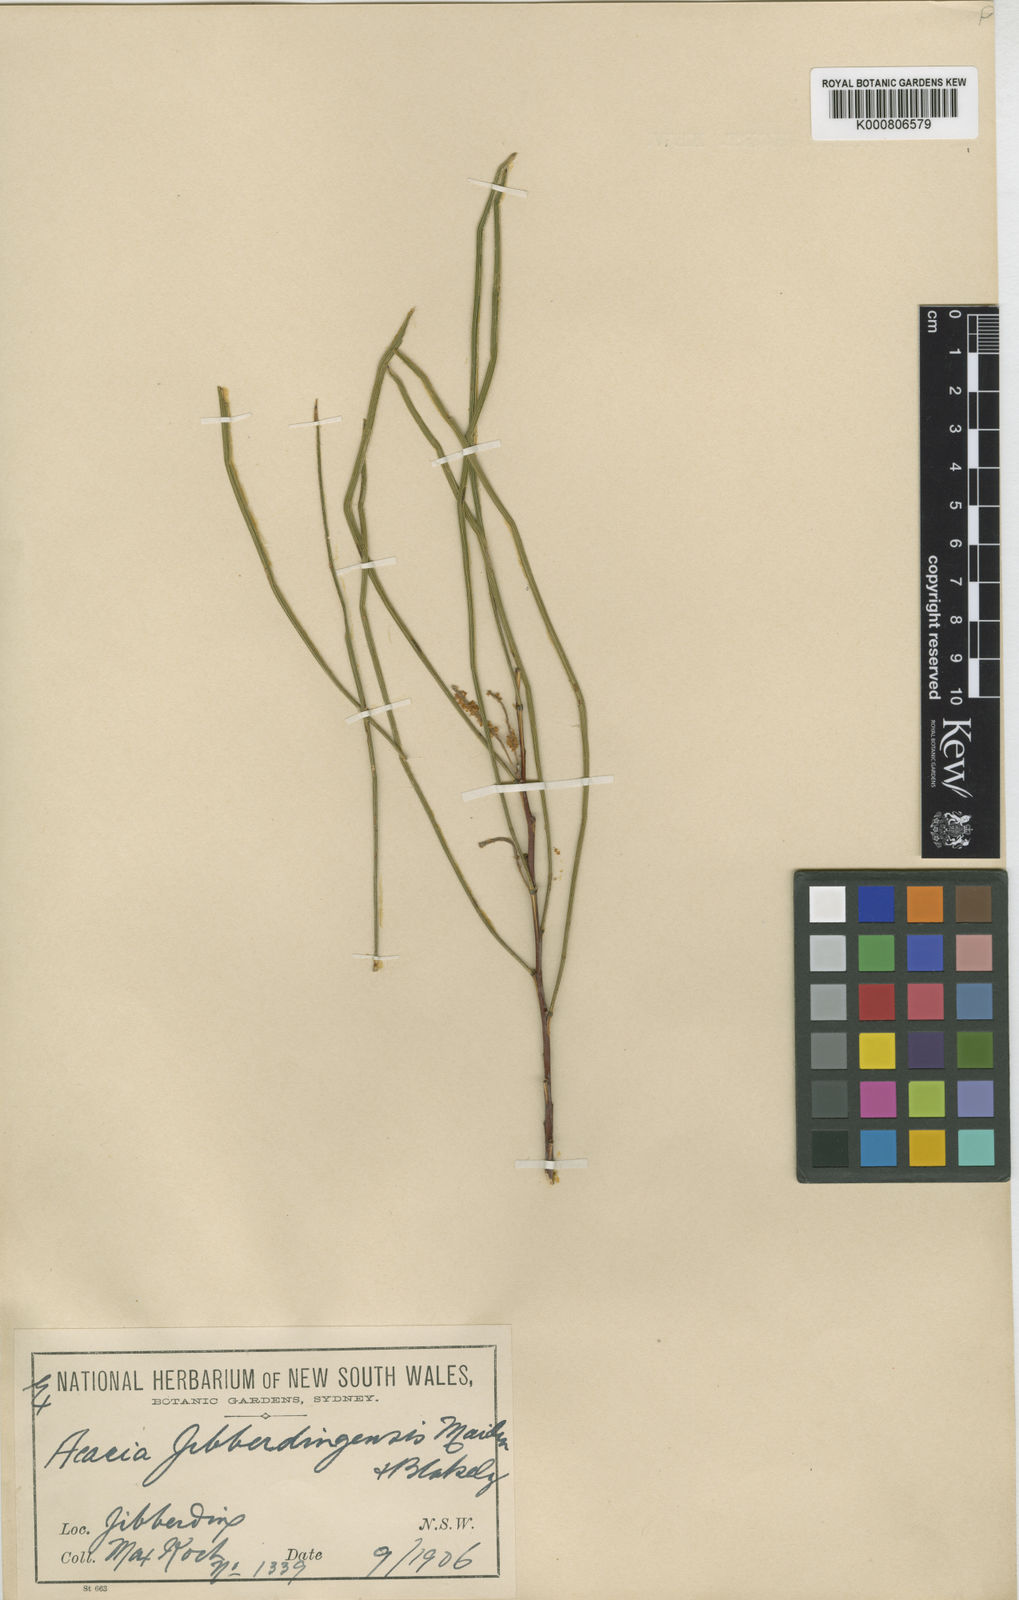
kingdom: Plantae
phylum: Tracheophyta
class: Magnoliopsida
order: Fabales
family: Fabaceae
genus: Acacia
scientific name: Acacia jibberdingensis
